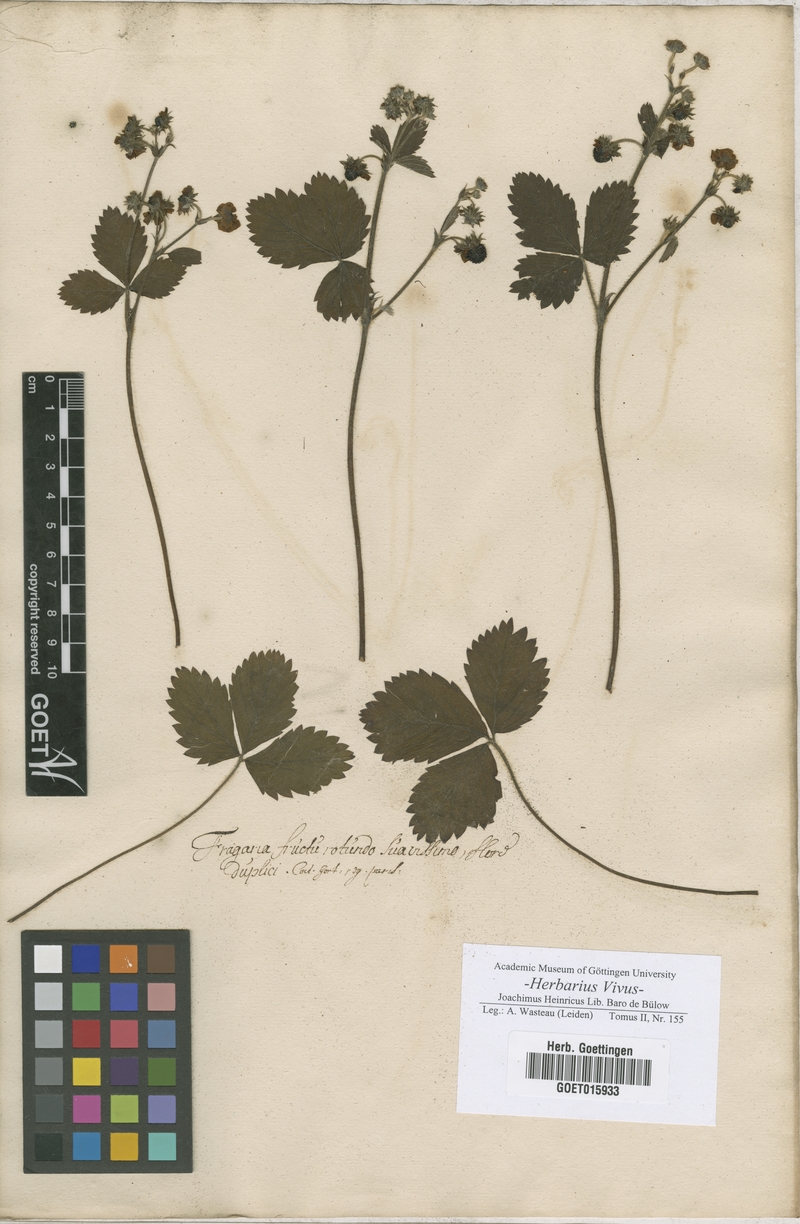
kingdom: Plantae
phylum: Tracheophyta
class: Magnoliopsida
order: Rosales
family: Rosaceae
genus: Fragaria
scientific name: Fragaria
